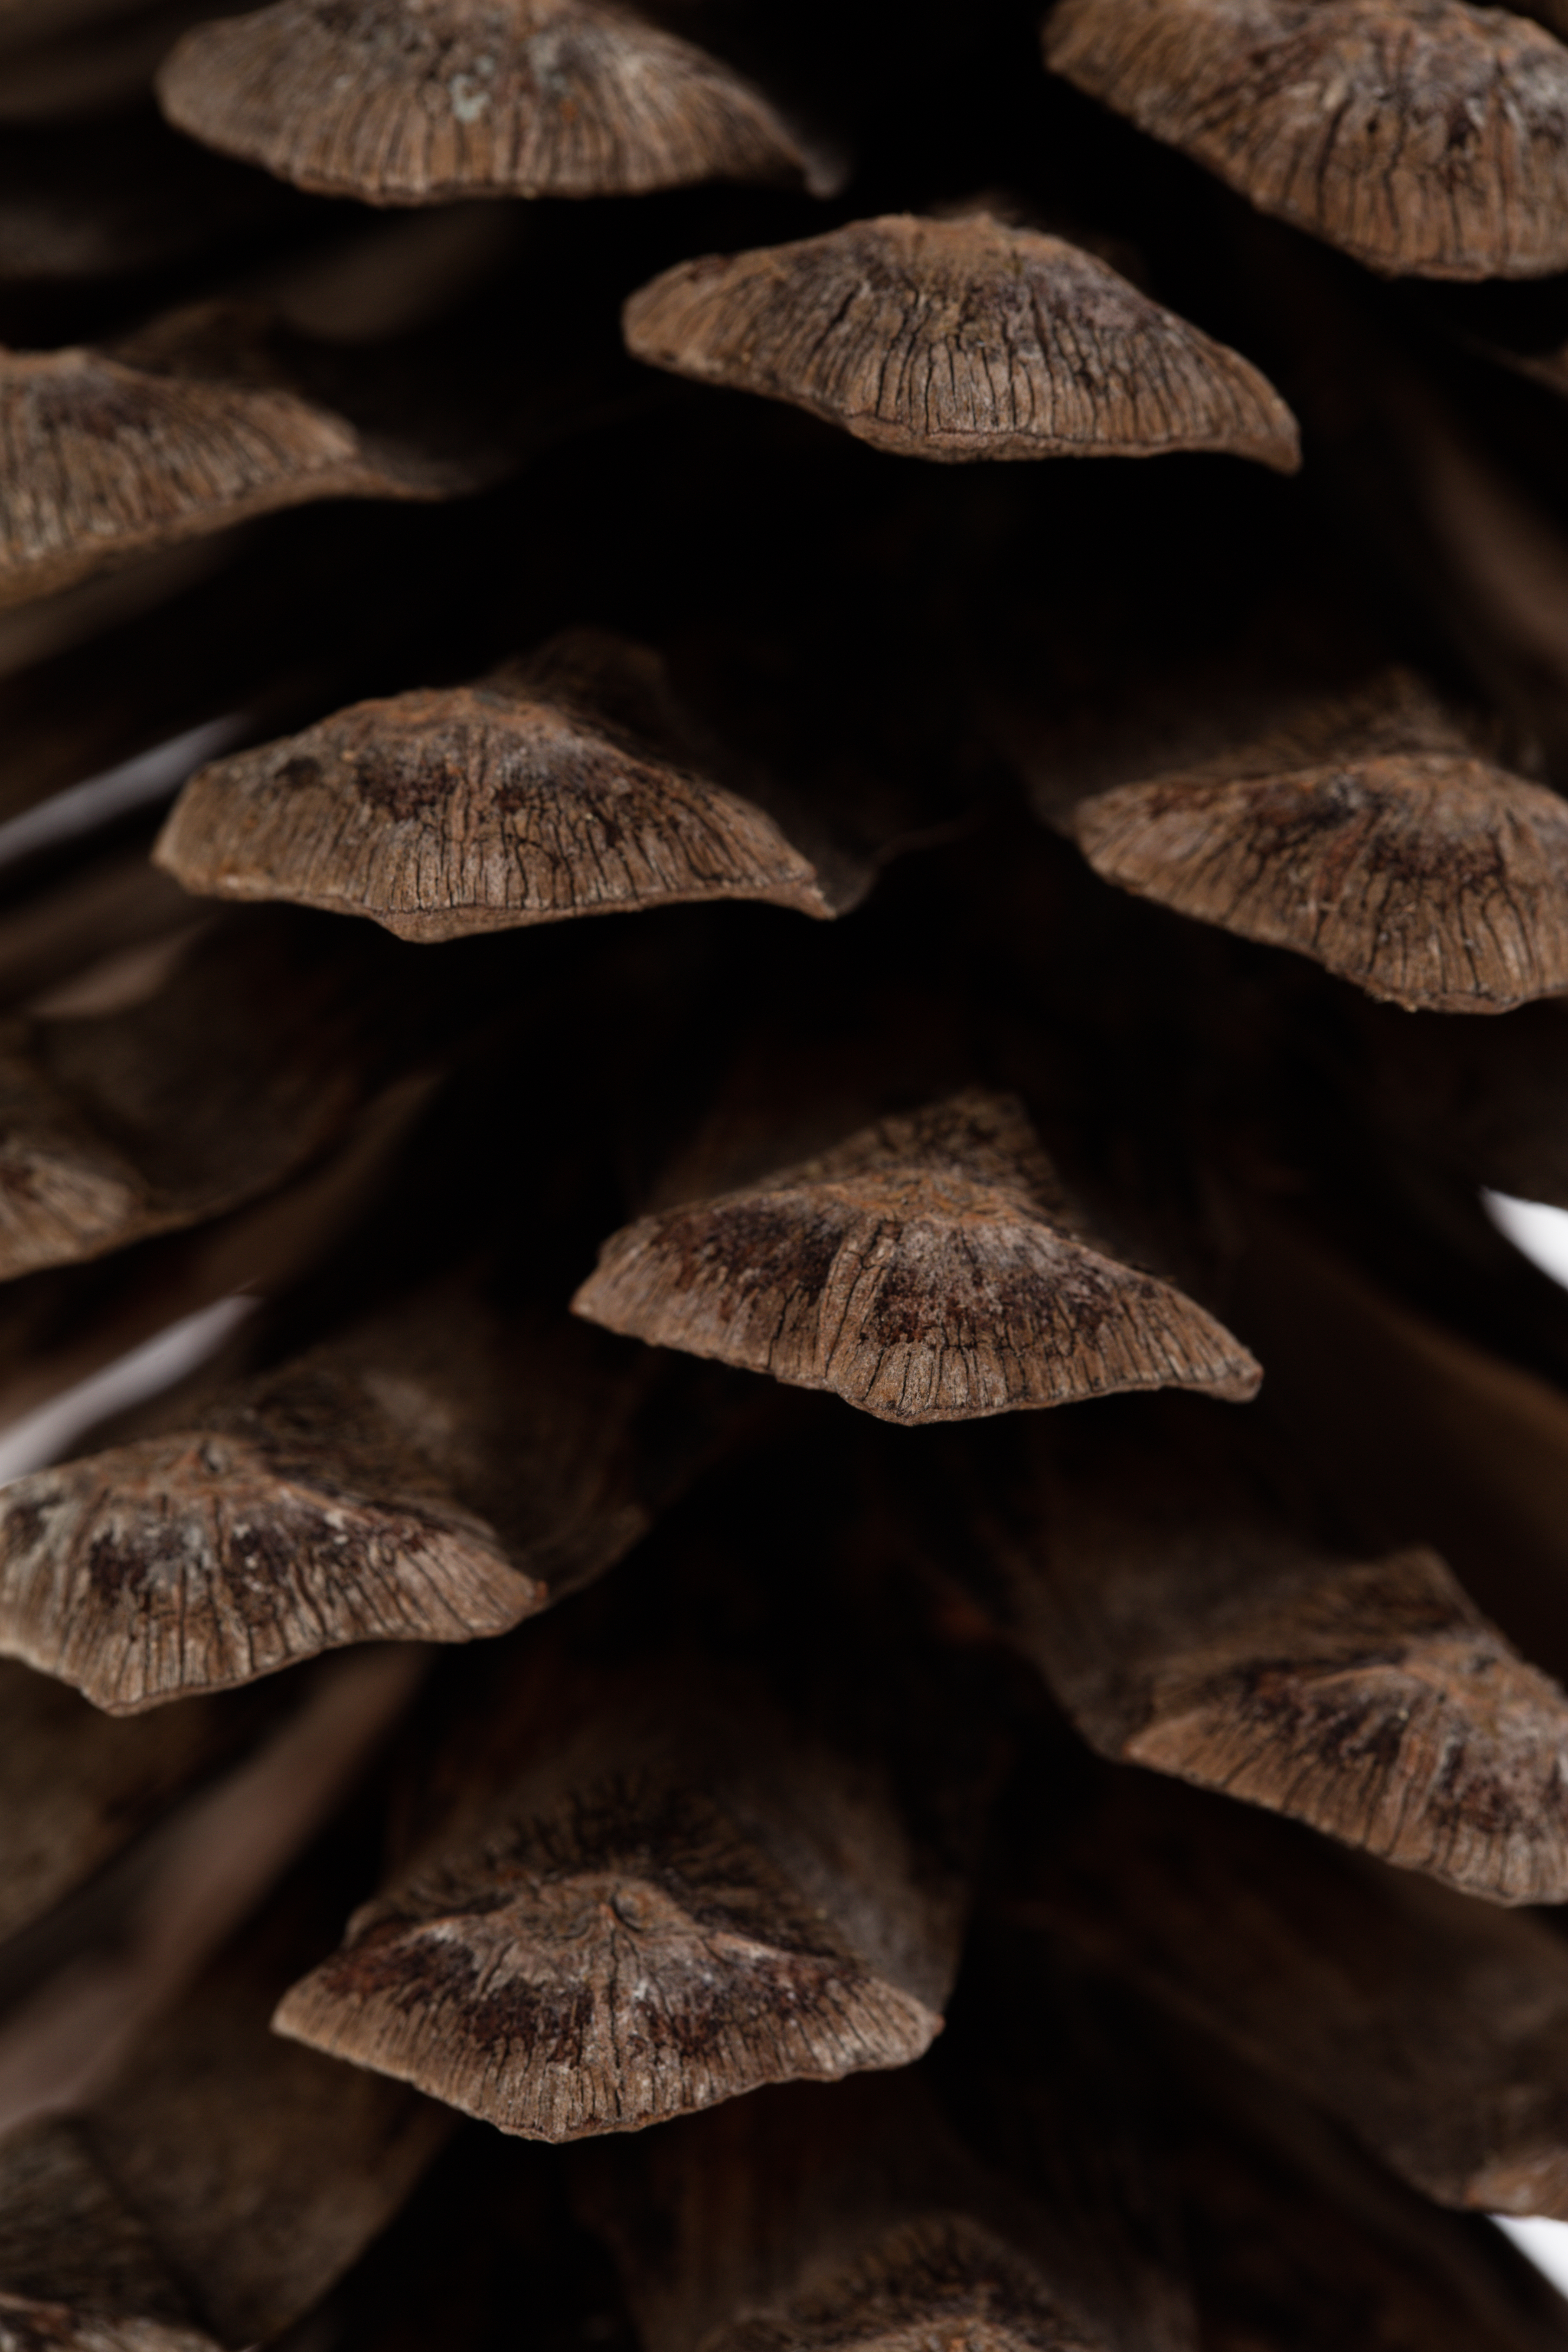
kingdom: Plantae
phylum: Tracheophyta
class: Pinopsida
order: Pinales
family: Pinaceae
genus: Pinus
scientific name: Pinus devoniana
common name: Michoacan pine
